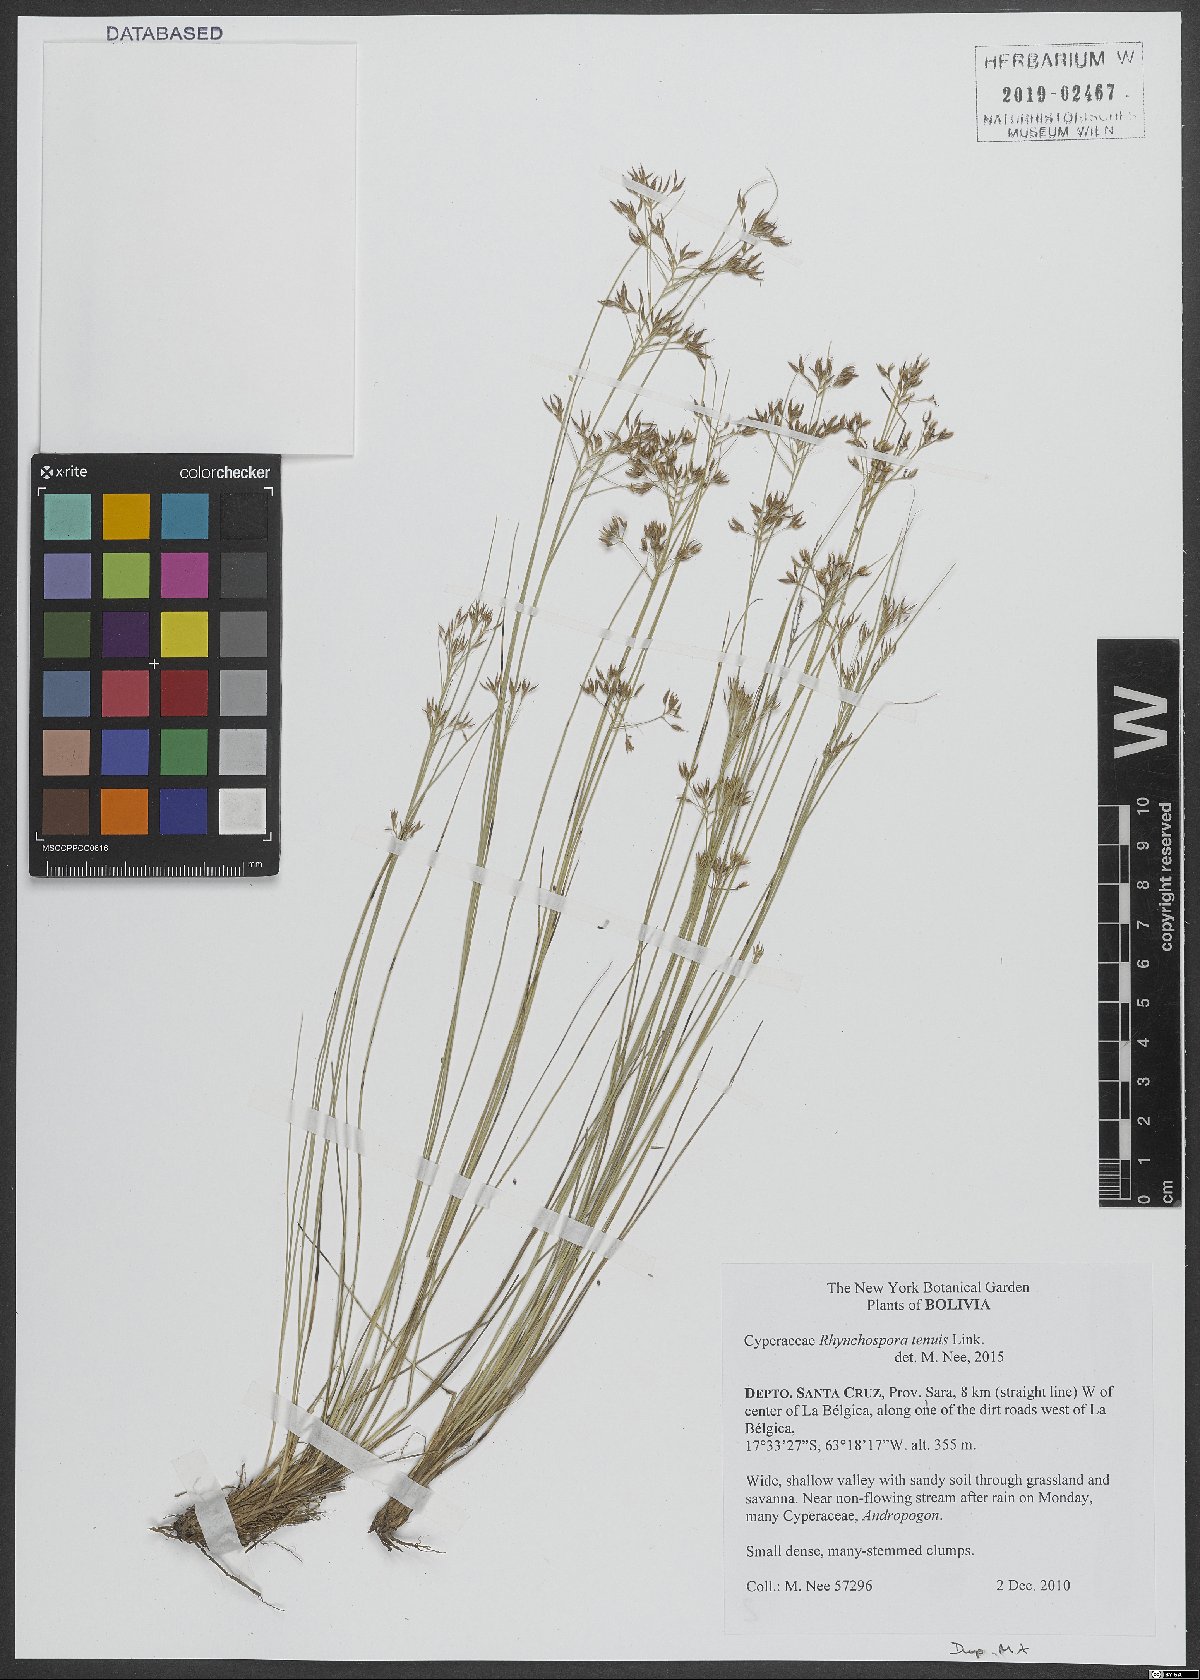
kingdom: Plantae
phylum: Tracheophyta
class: Liliopsida
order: Poales
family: Cyperaceae
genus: Rhynchospora
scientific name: Rhynchospora tenuis
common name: Quill beaksedge
